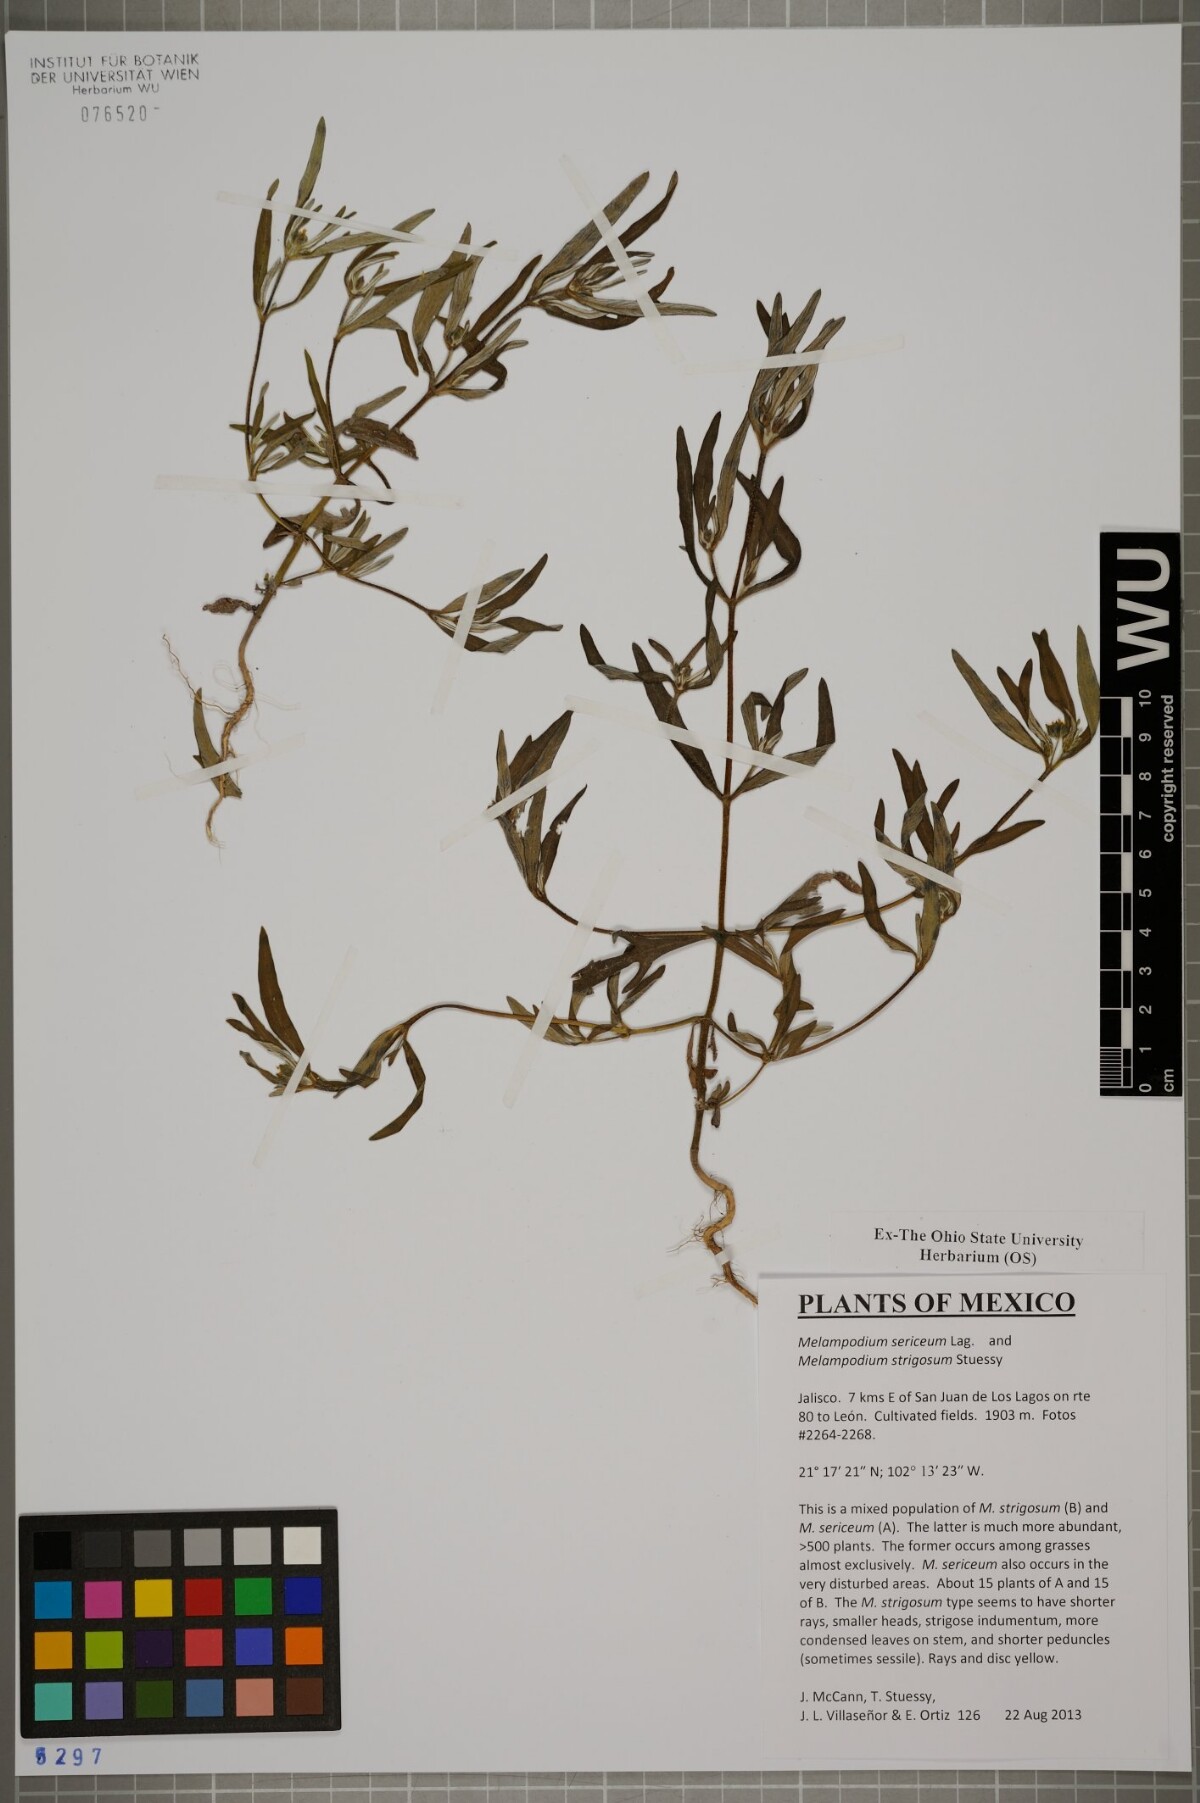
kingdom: Plantae
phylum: Tracheophyta
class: Magnoliopsida
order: Asterales
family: Asteraceae
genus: Melampodium
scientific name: Melampodium sericeum
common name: Rough blackfoot
